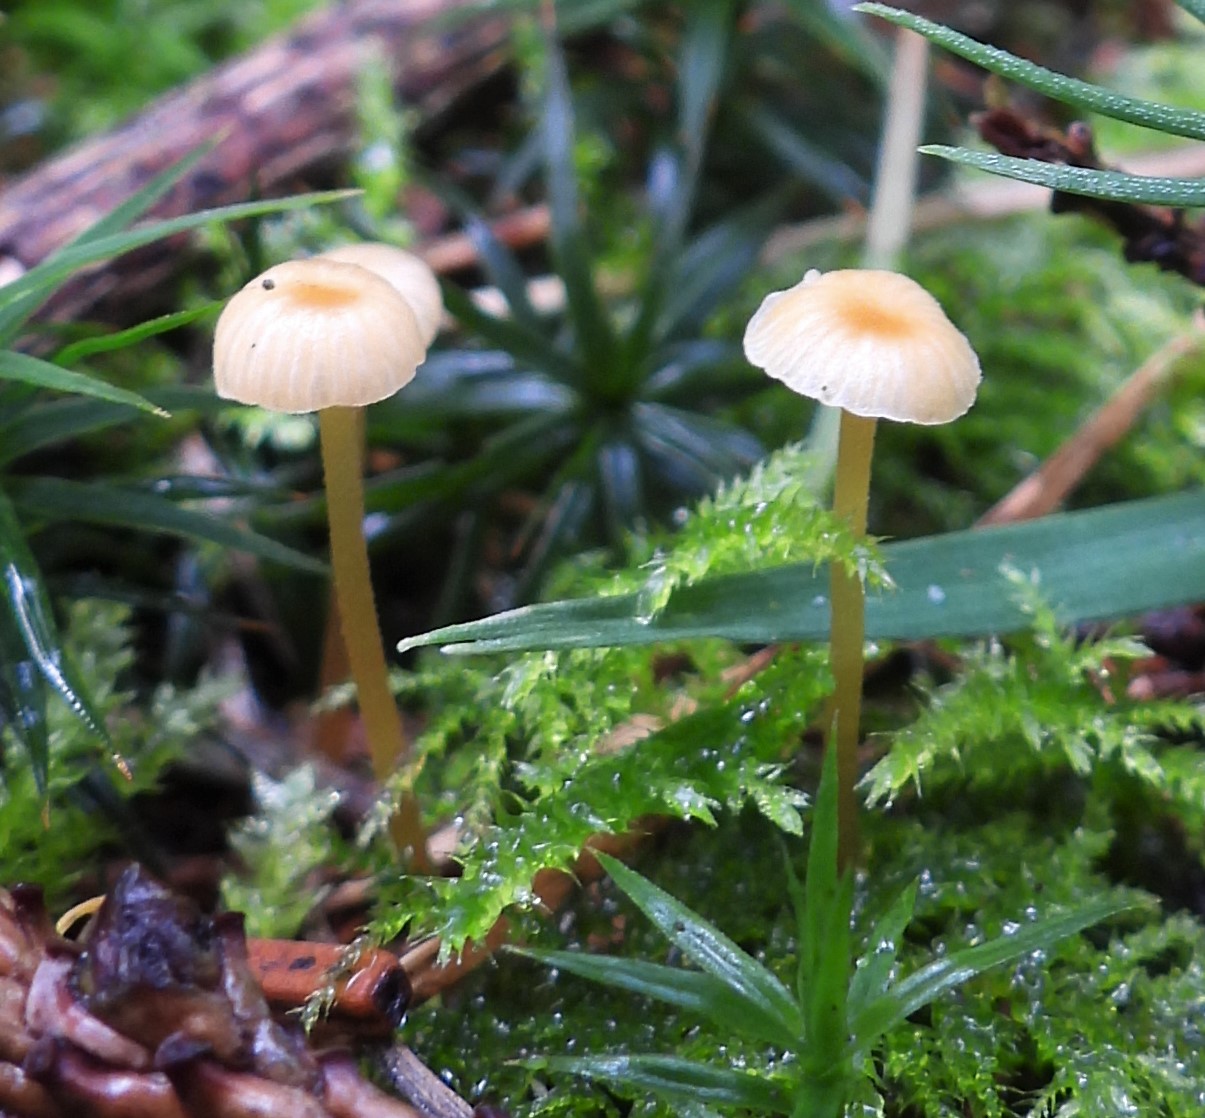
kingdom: Fungi
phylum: Basidiomycota
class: Agaricomycetes
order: Hymenochaetales
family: Rickenellaceae
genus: Rickenella
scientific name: Rickenella fibula
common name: orange mosnavlehat
